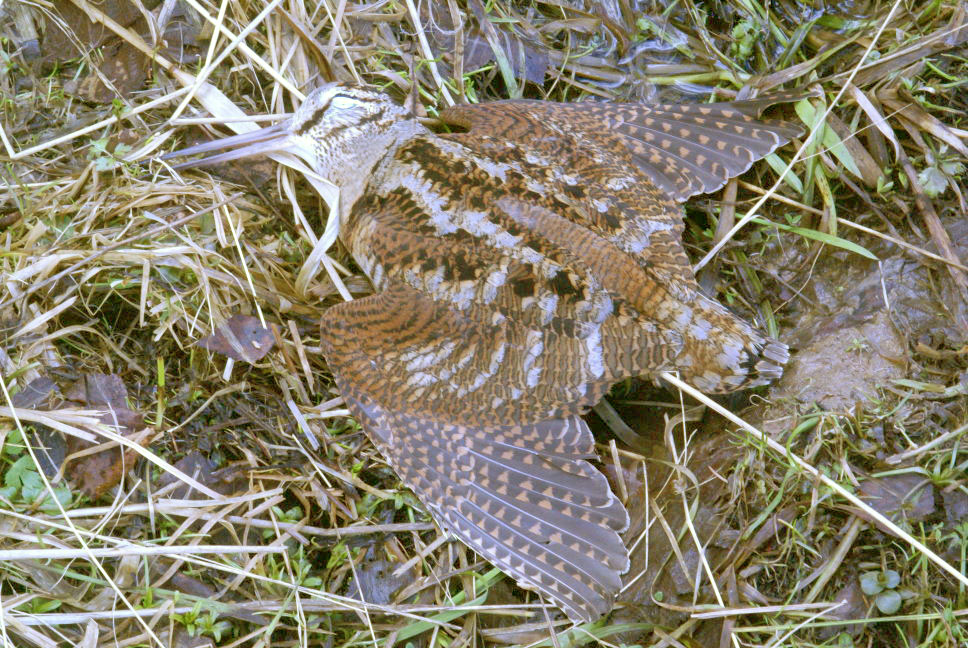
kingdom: Animalia
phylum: Chordata
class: Aves
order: Charadriiformes
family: Scolopacidae
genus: Scolopax
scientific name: Scolopax rusticola
